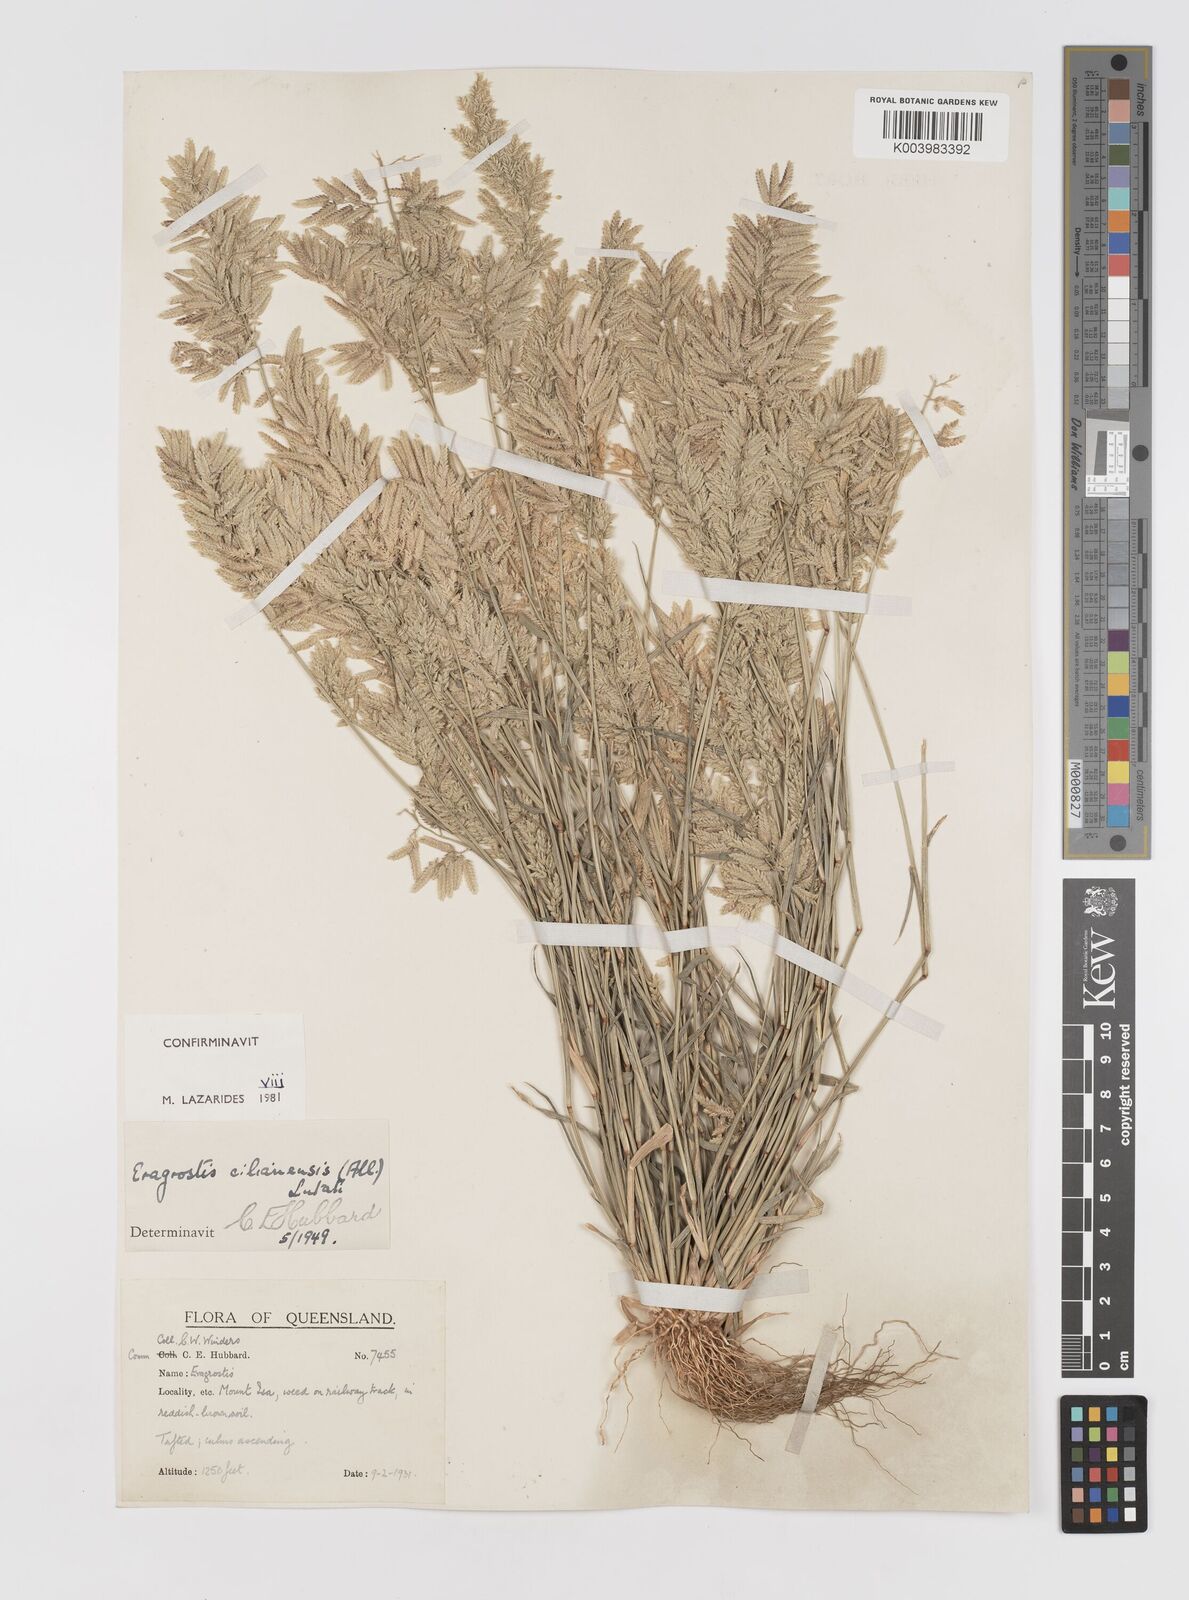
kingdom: Plantae
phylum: Tracheophyta
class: Liliopsida
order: Poales
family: Poaceae
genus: Eragrostis
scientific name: Eragrostis cilianensis
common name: Stinkgrass
